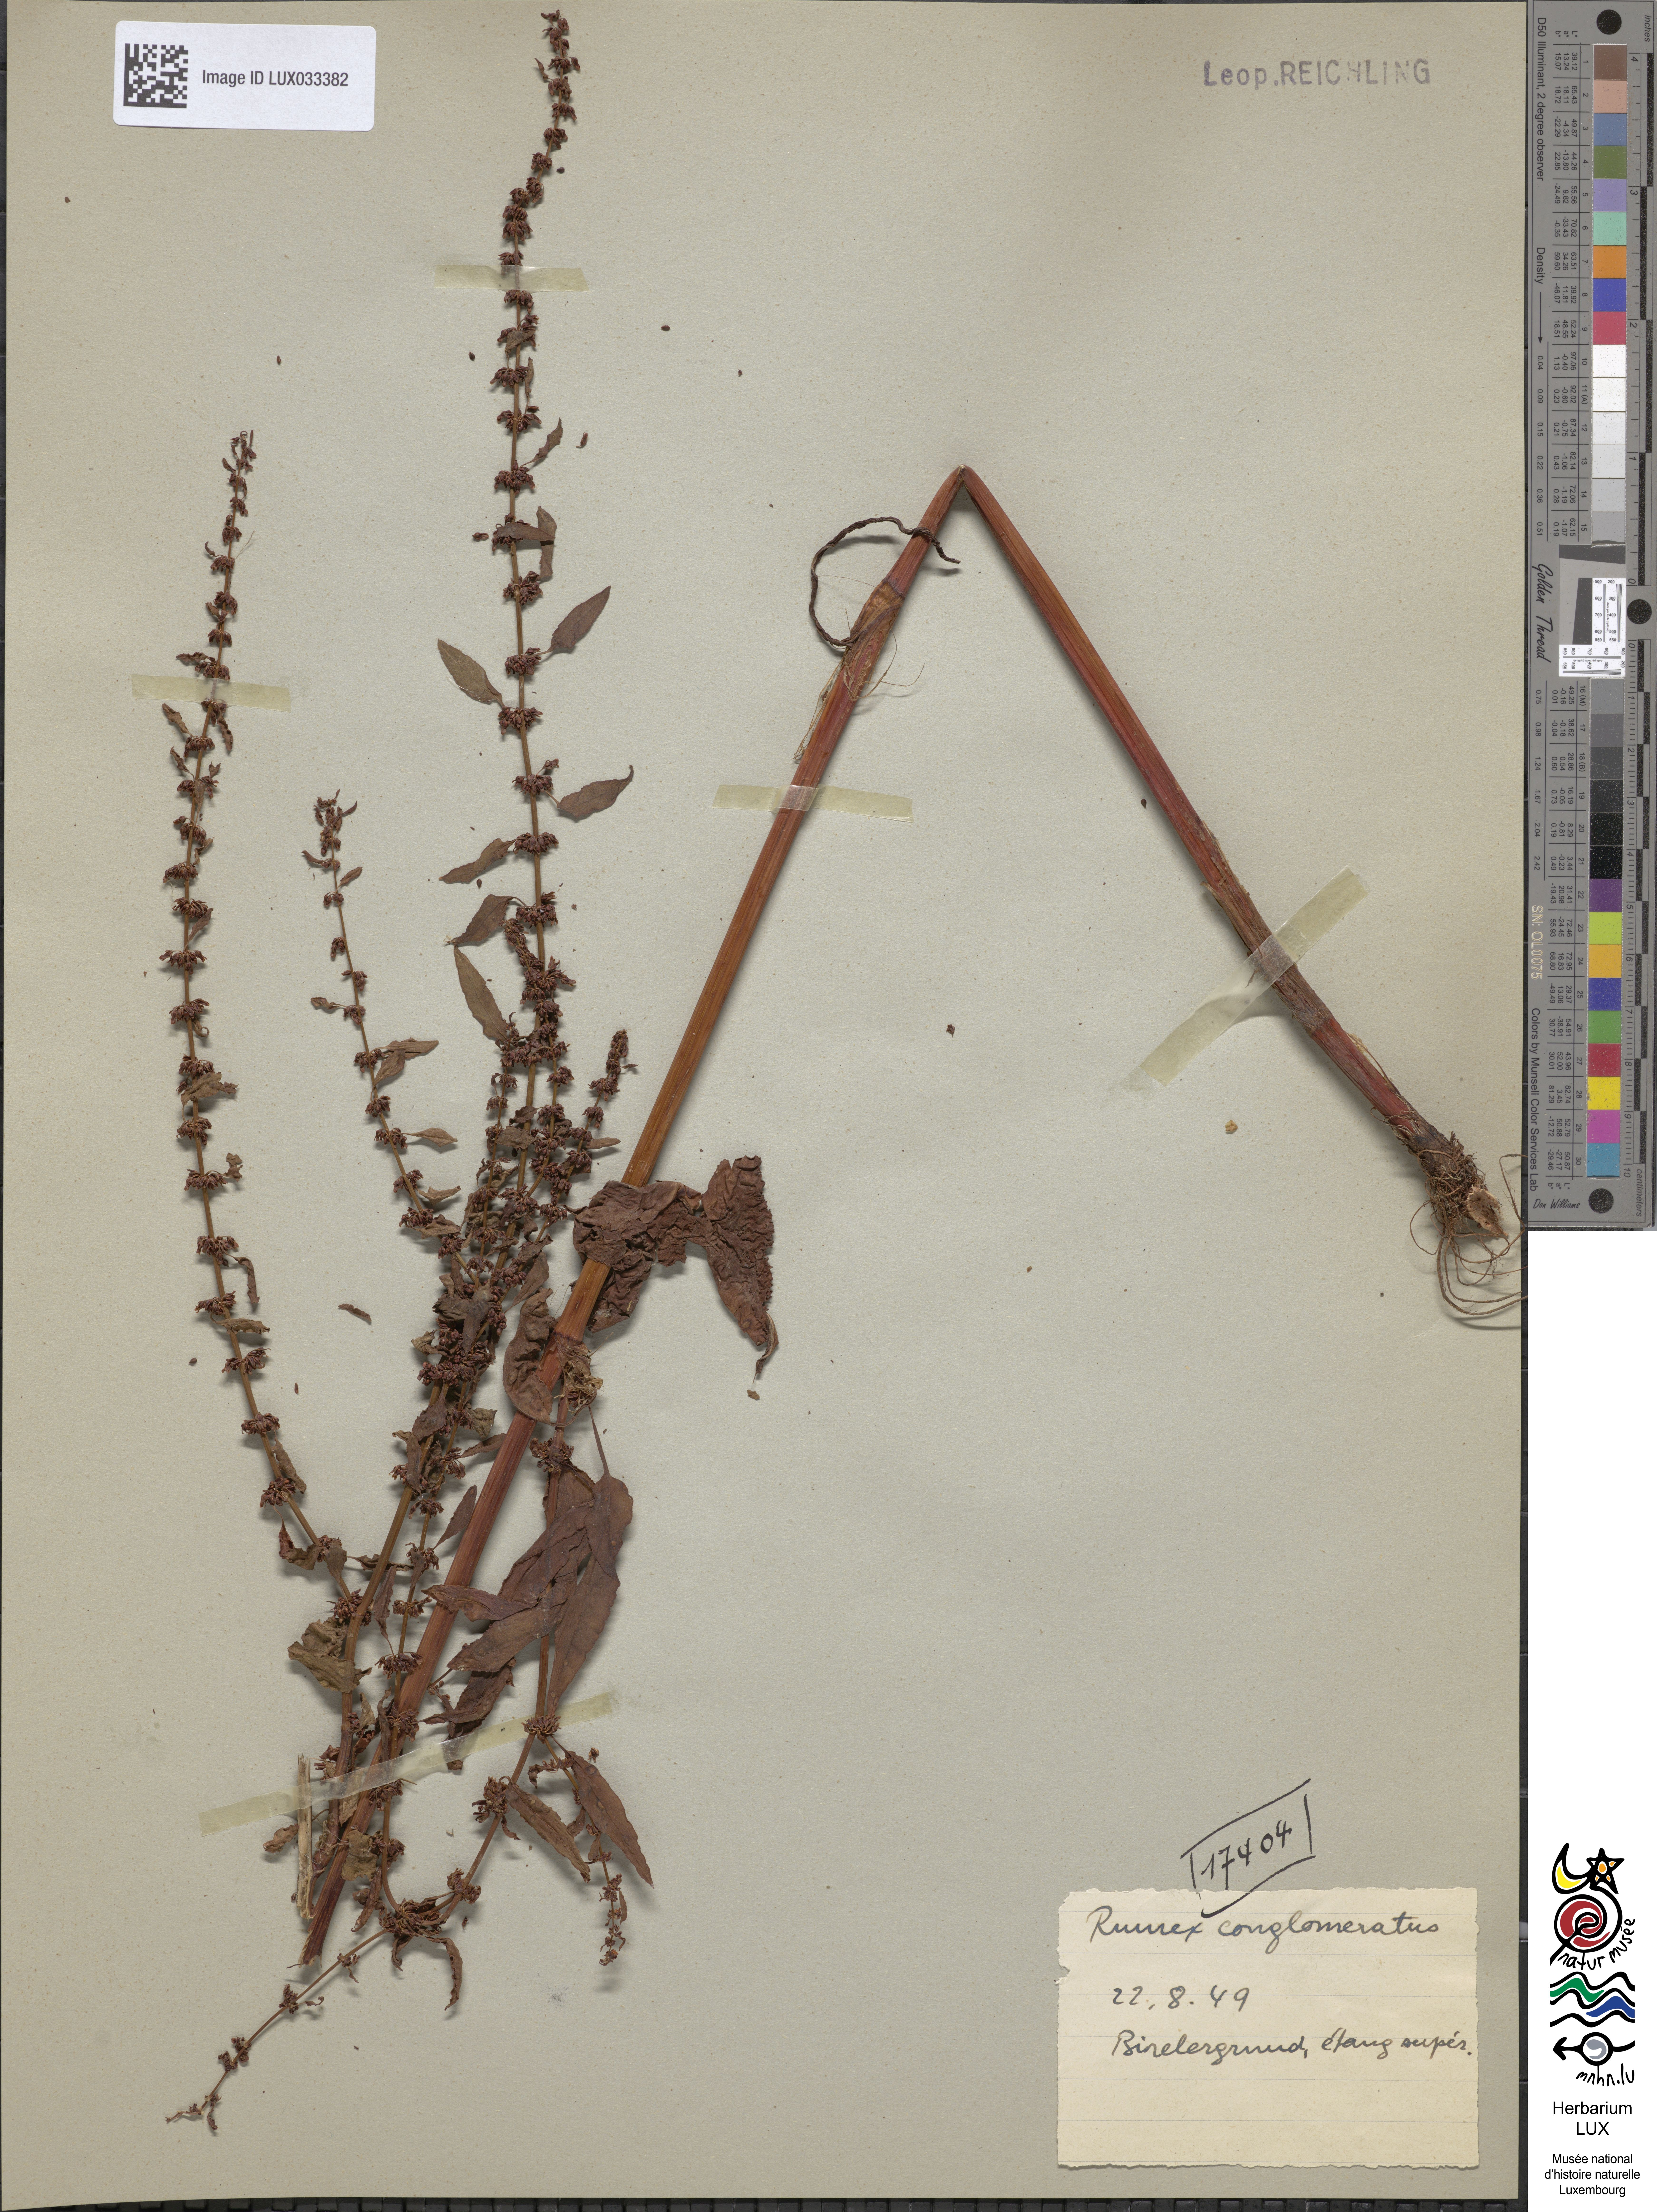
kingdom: Plantae
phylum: Tracheophyta
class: Magnoliopsida
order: Caryophyllales
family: Polygonaceae
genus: Rumex
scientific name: Rumex conglomeratus
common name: Clustered dock
